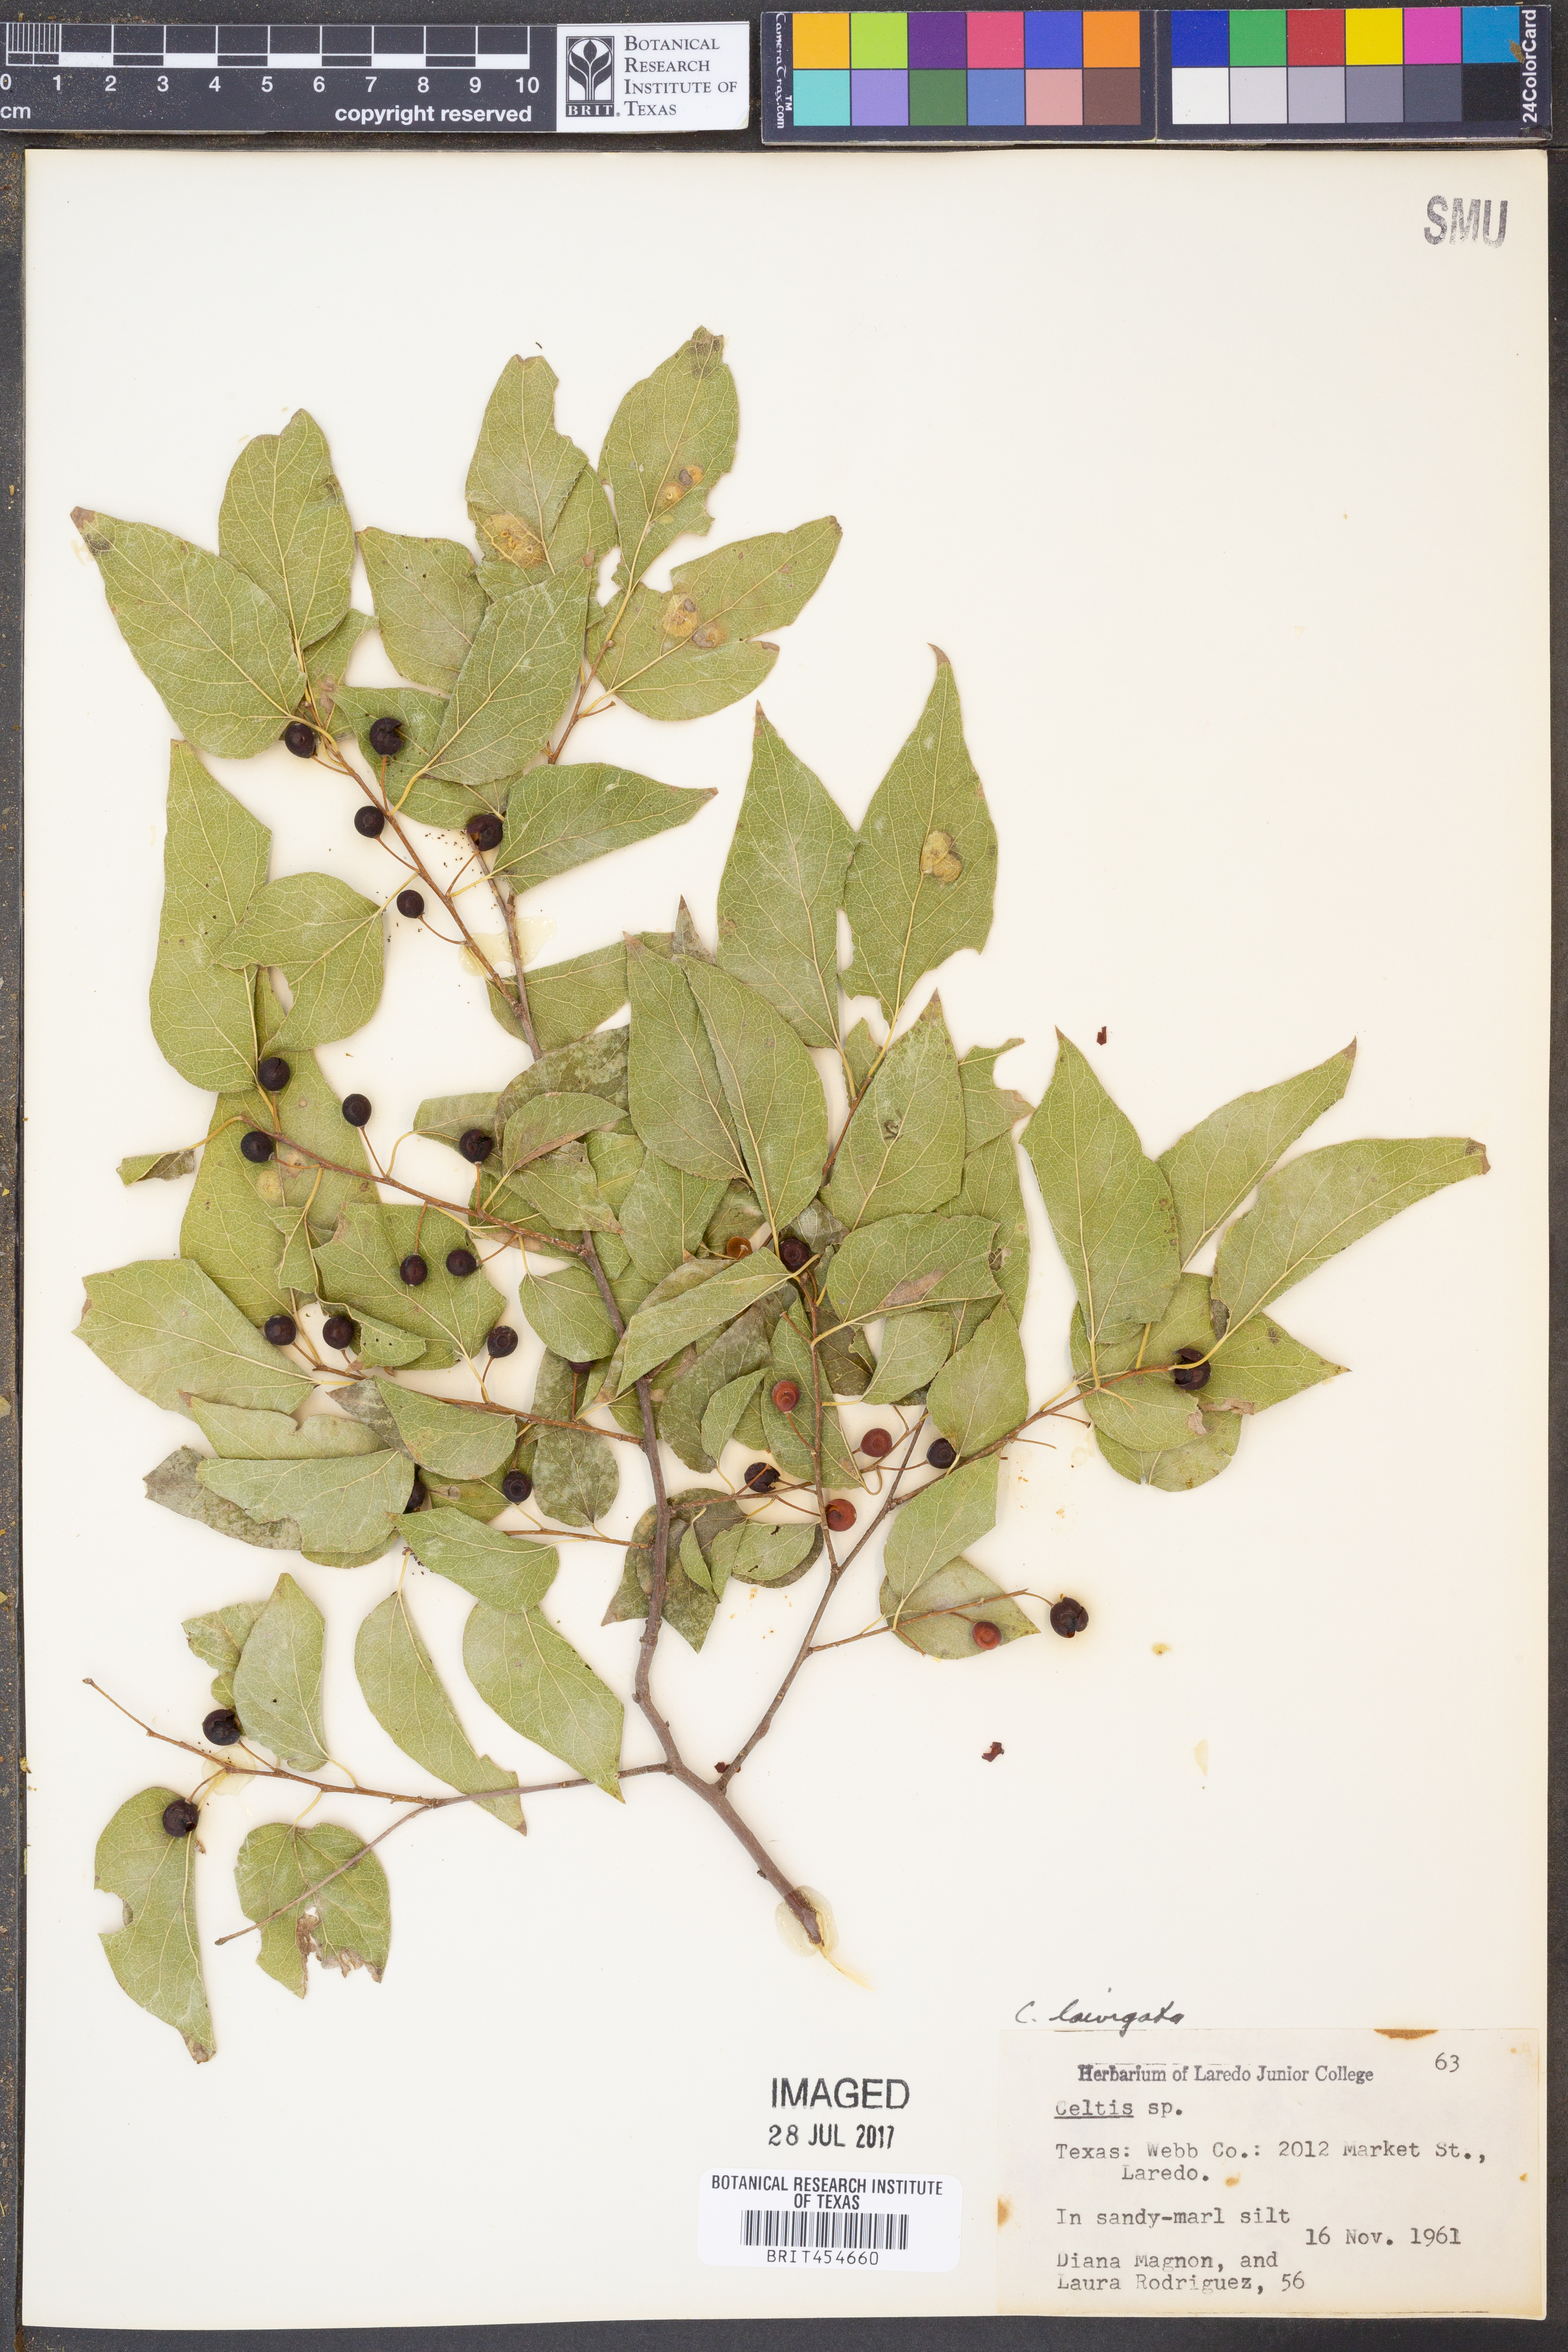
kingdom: Plantae
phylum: Tracheophyta
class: Magnoliopsida
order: Rosales
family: Cannabaceae
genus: Celtis
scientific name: Celtis
